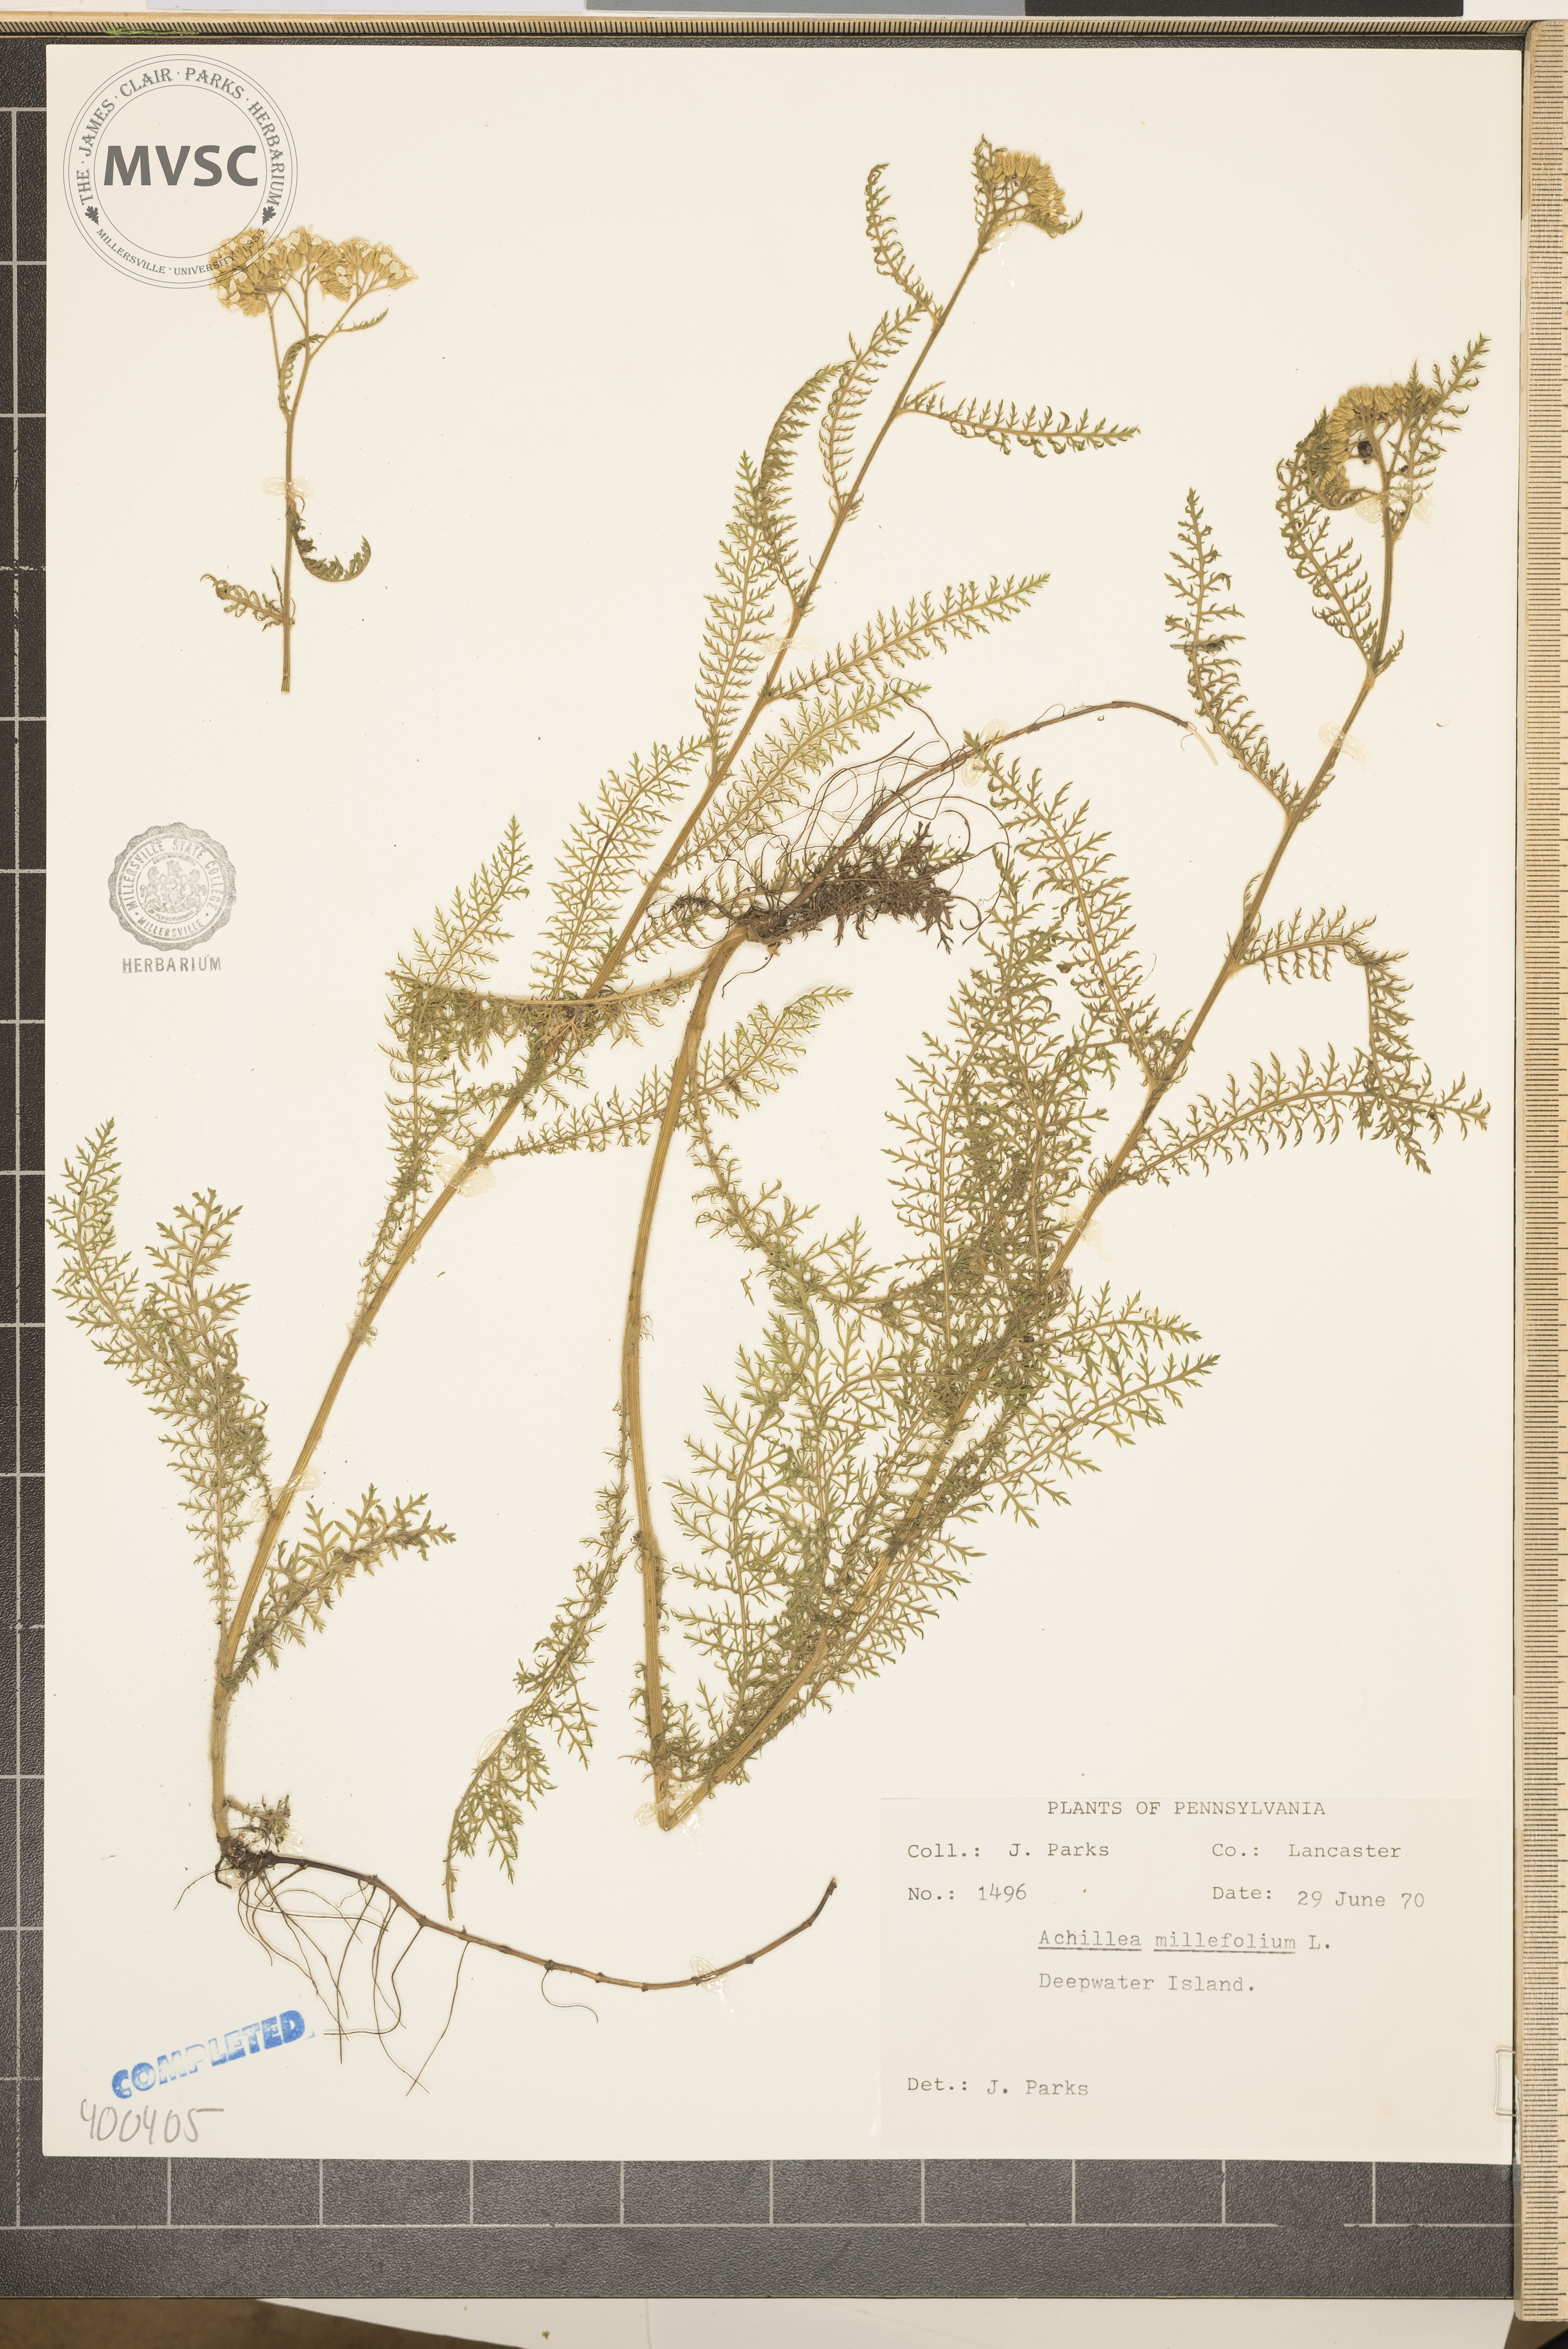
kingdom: Plantae
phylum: Tracheophyta
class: Magnoliopsida
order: Asterales
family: Asteraceae
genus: Achillea
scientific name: Achillea millefolium
